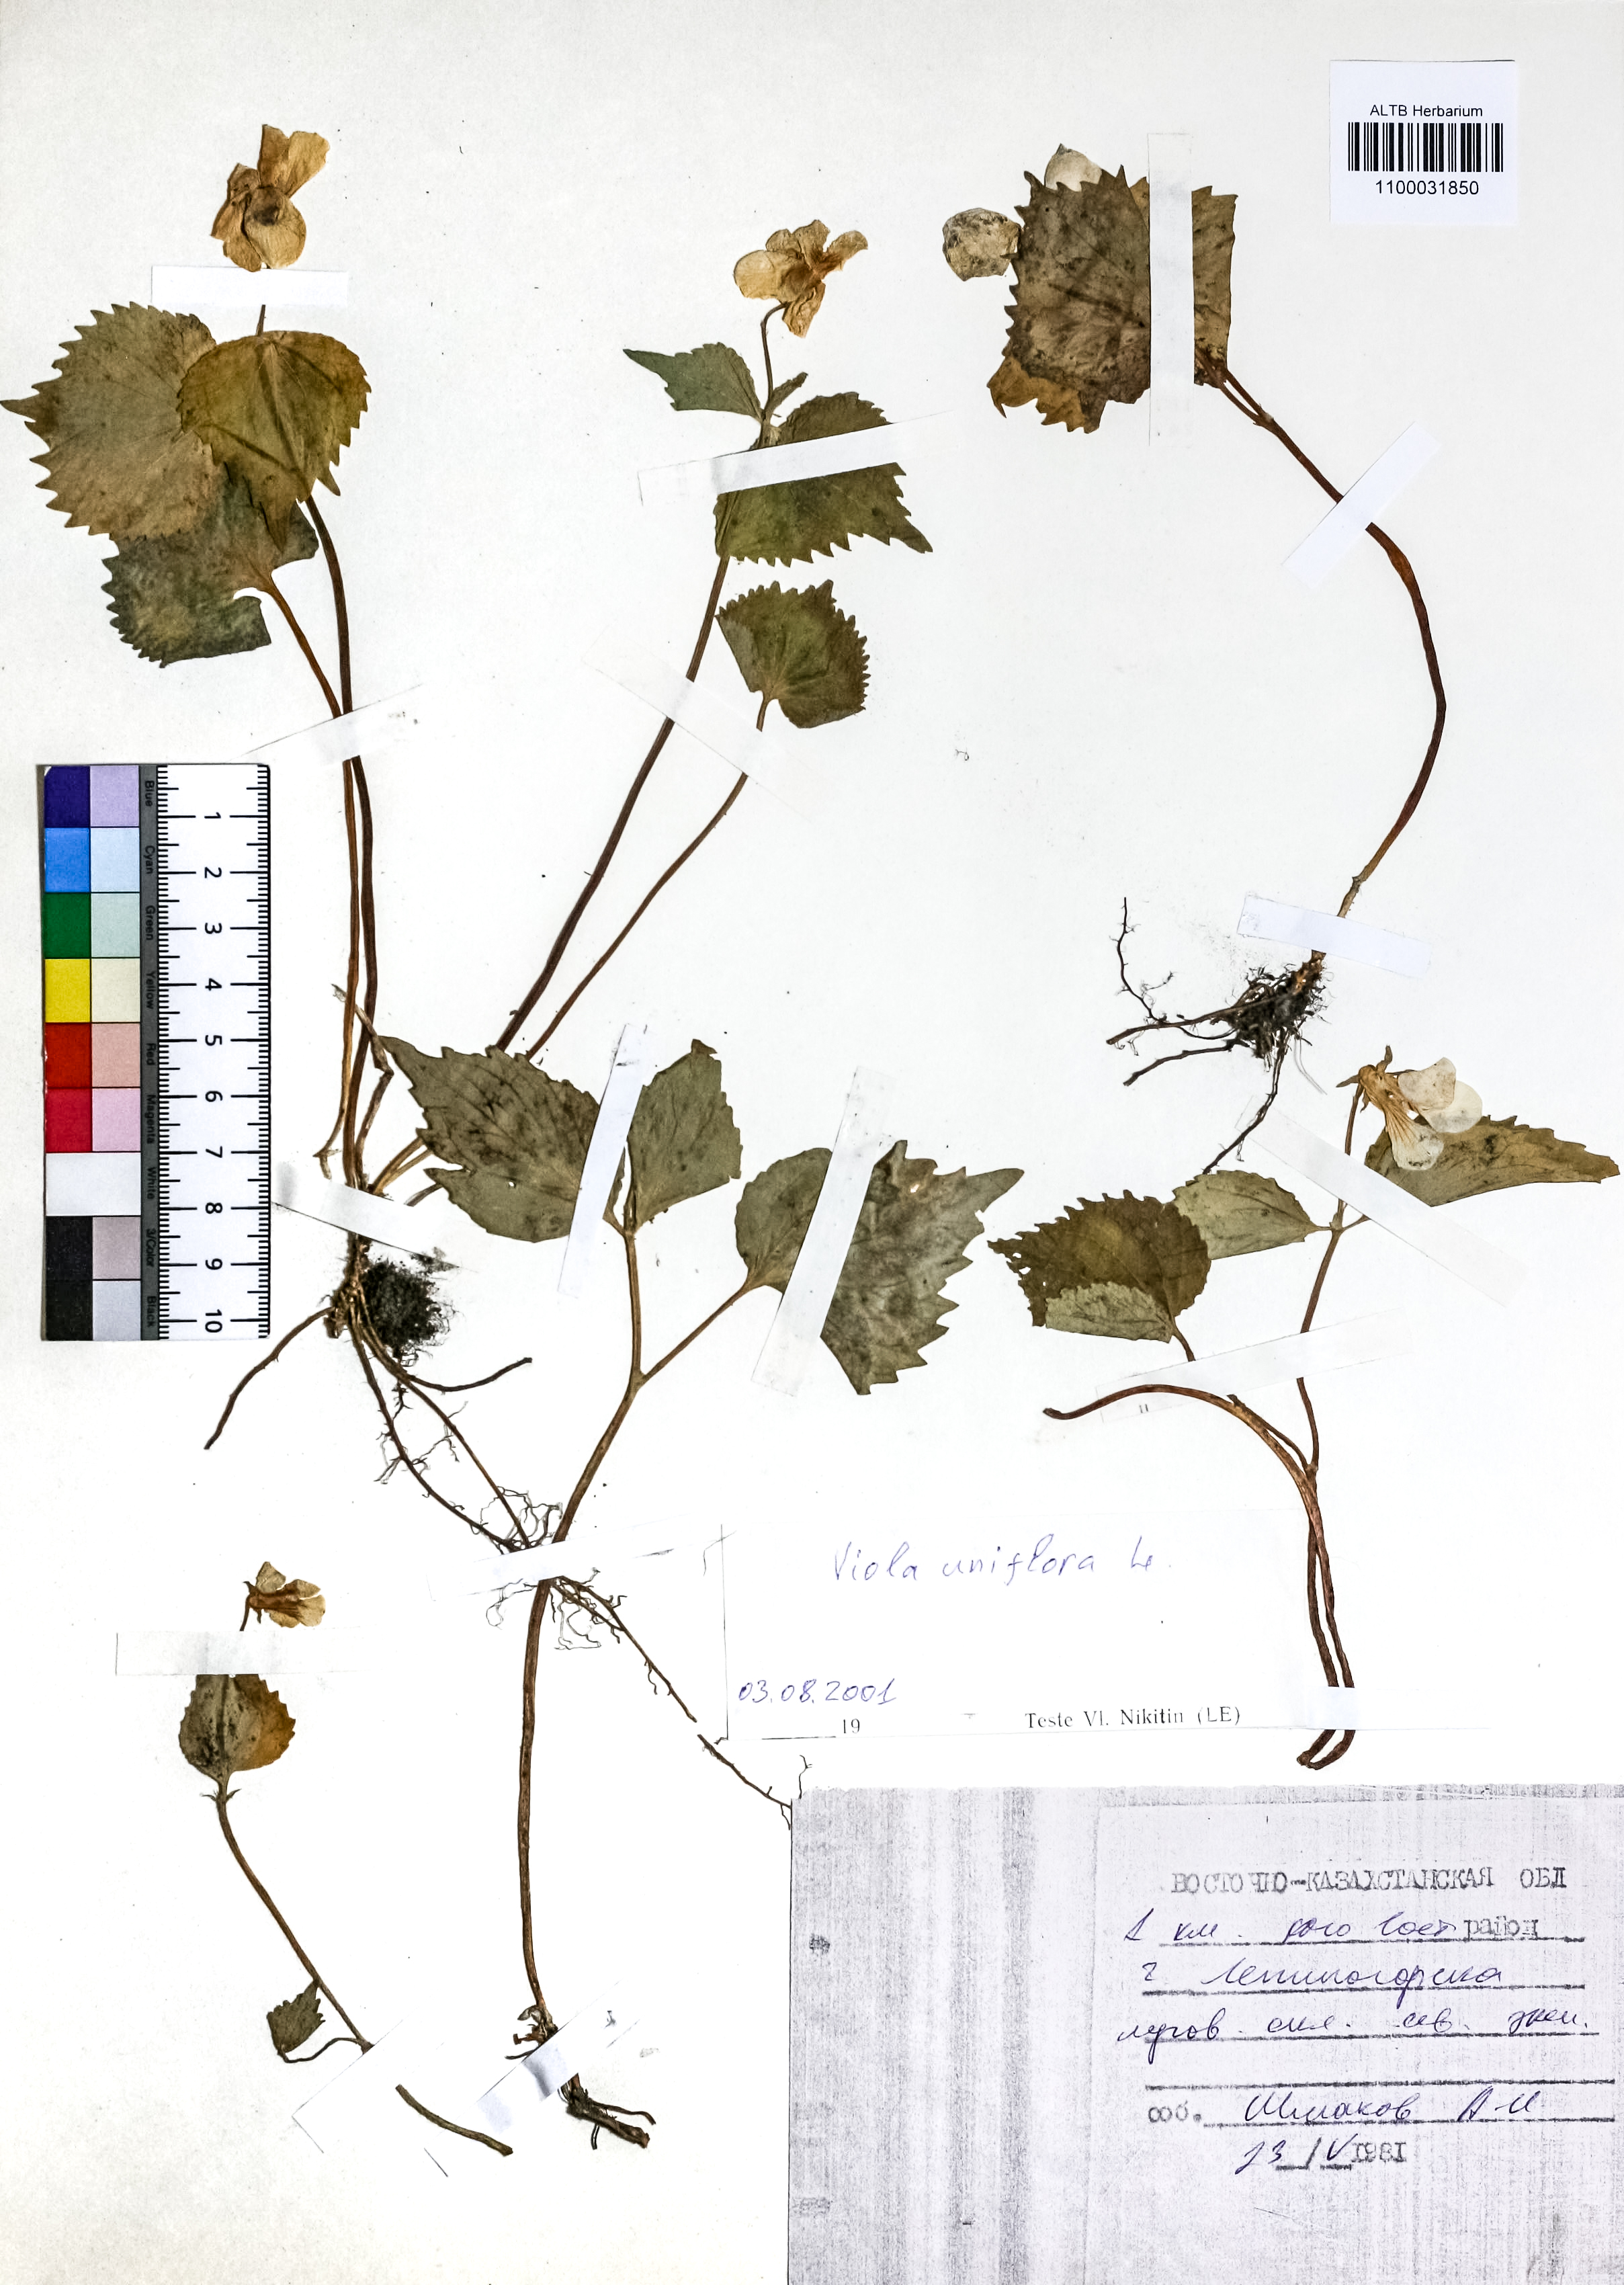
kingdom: Plantae
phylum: Tracheophyta
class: Magnoliopsida
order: Malpighiales
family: Violaceae
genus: Viola
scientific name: Viola uniflora
